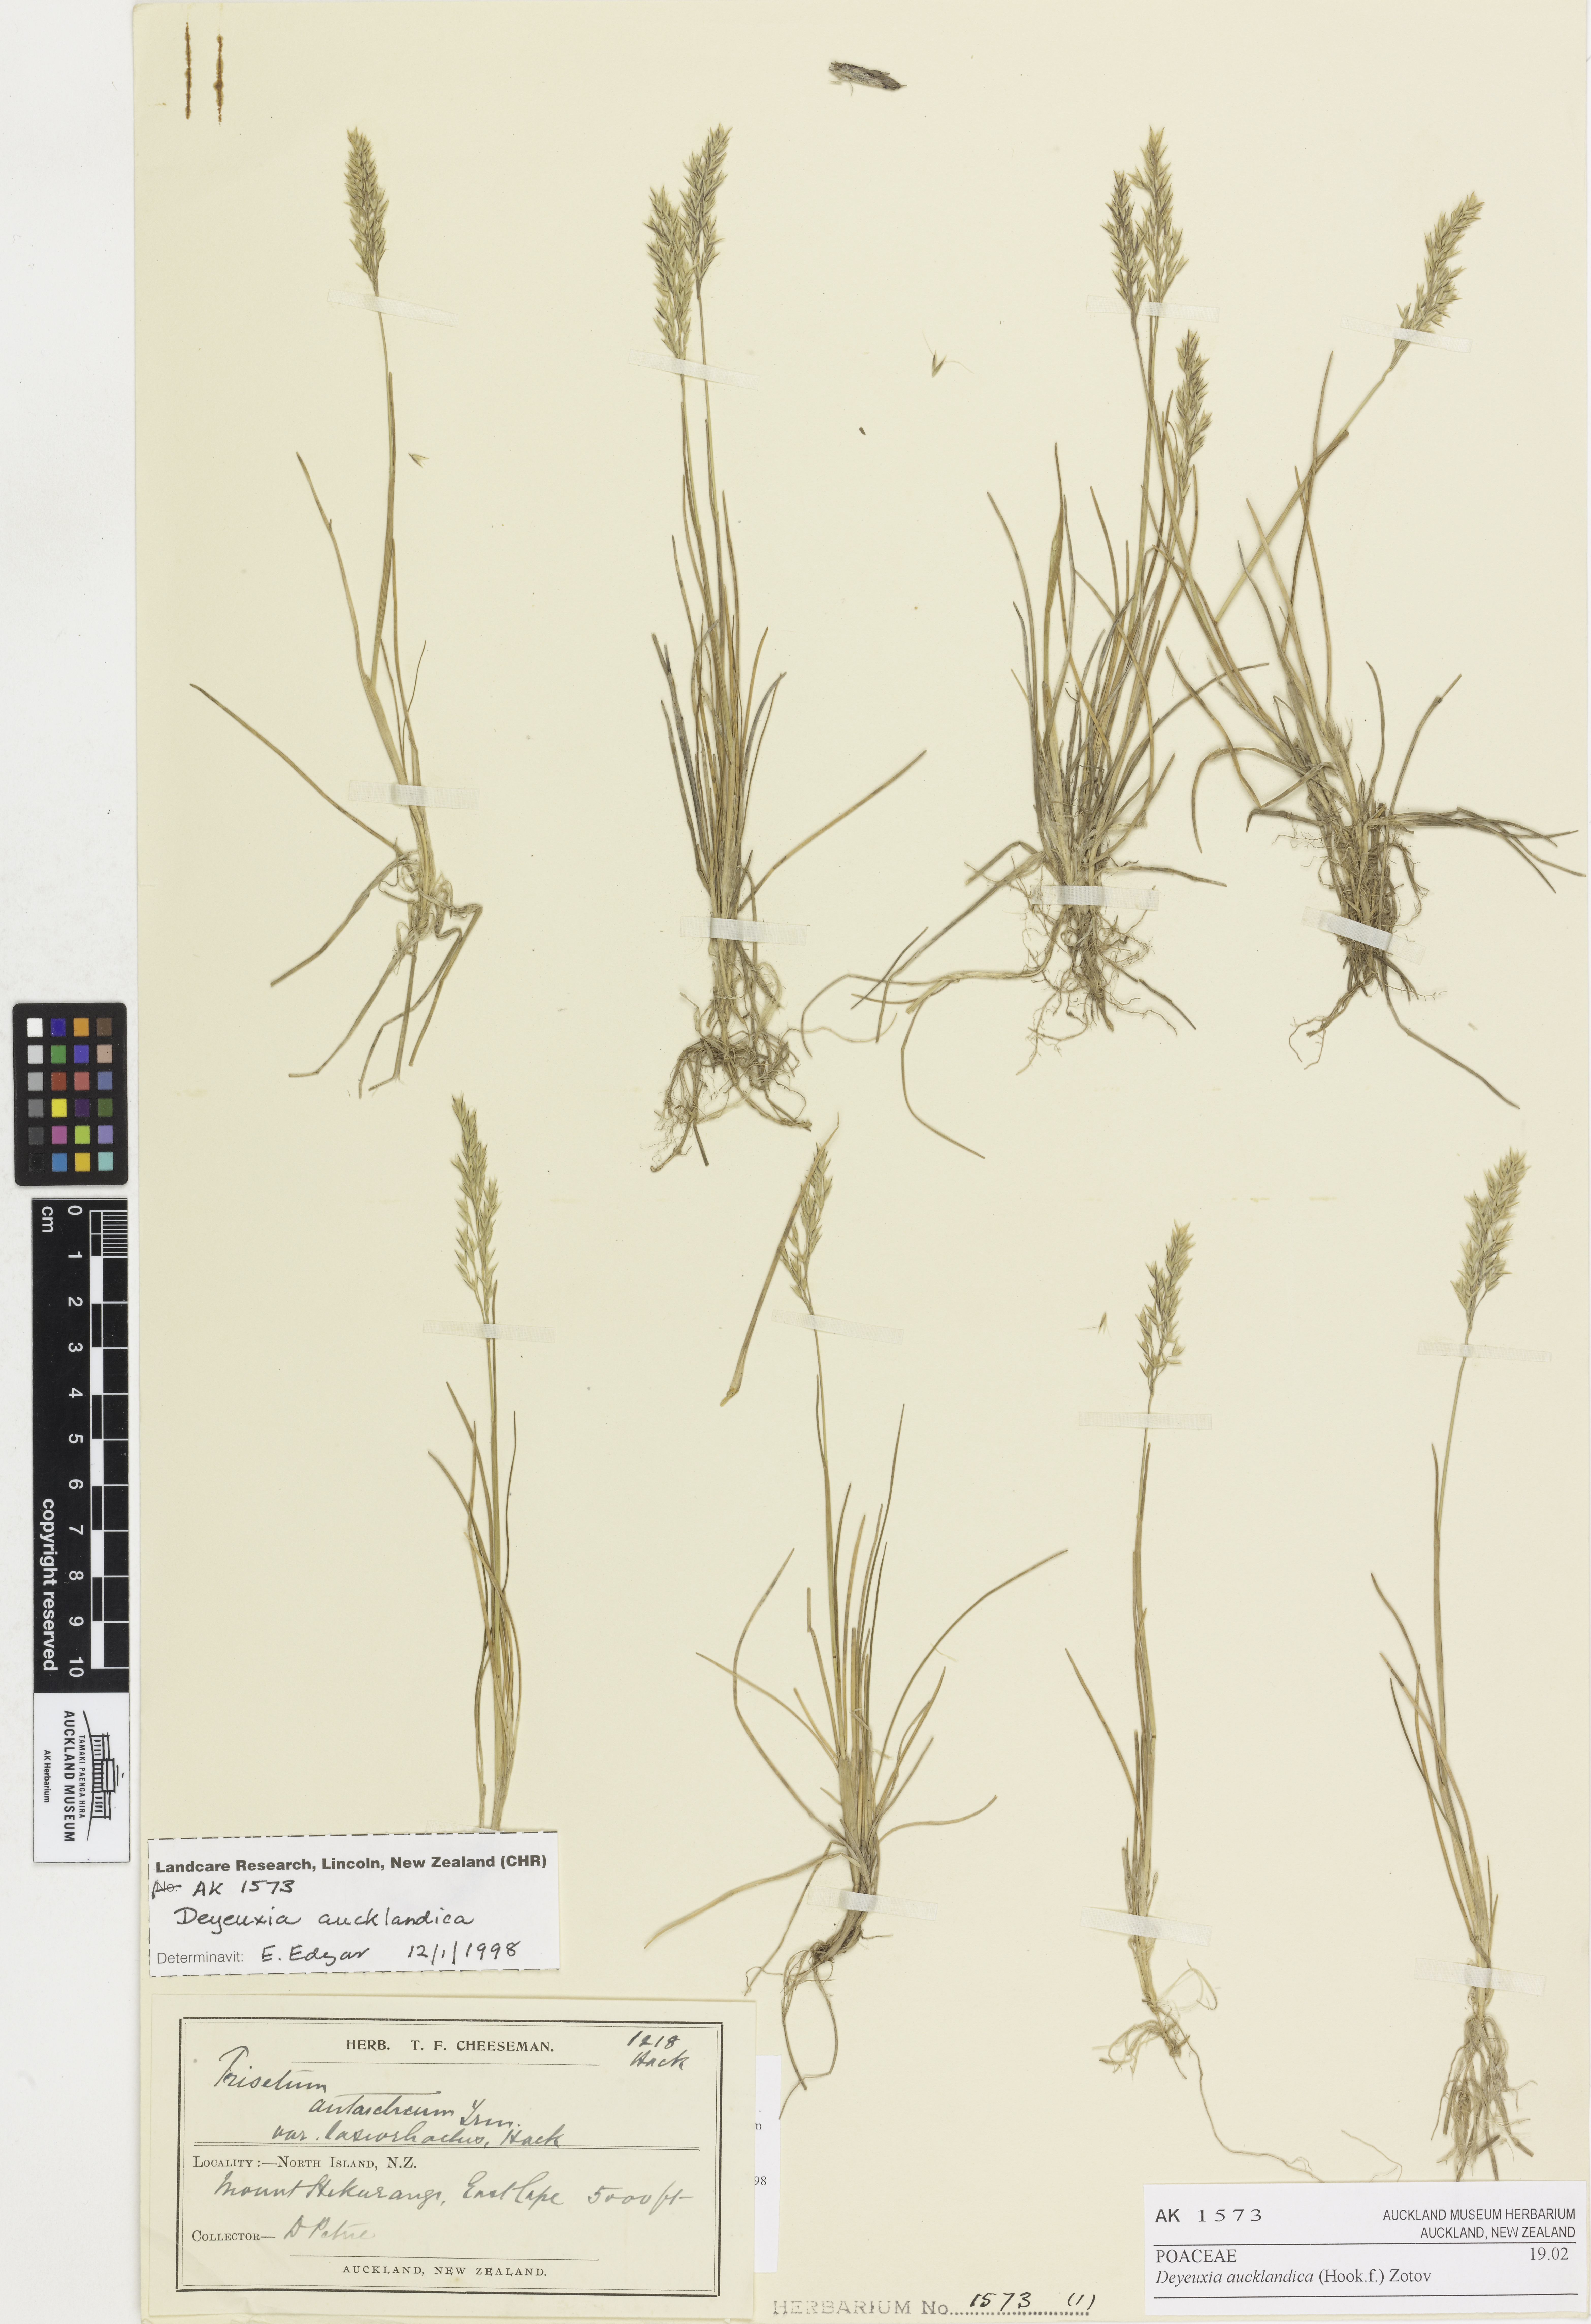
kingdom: Plantae
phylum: Tracheophyta
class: Liliopsida
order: Poales
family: Poaceae
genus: Agrostis
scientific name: Agrostis aucklandica
